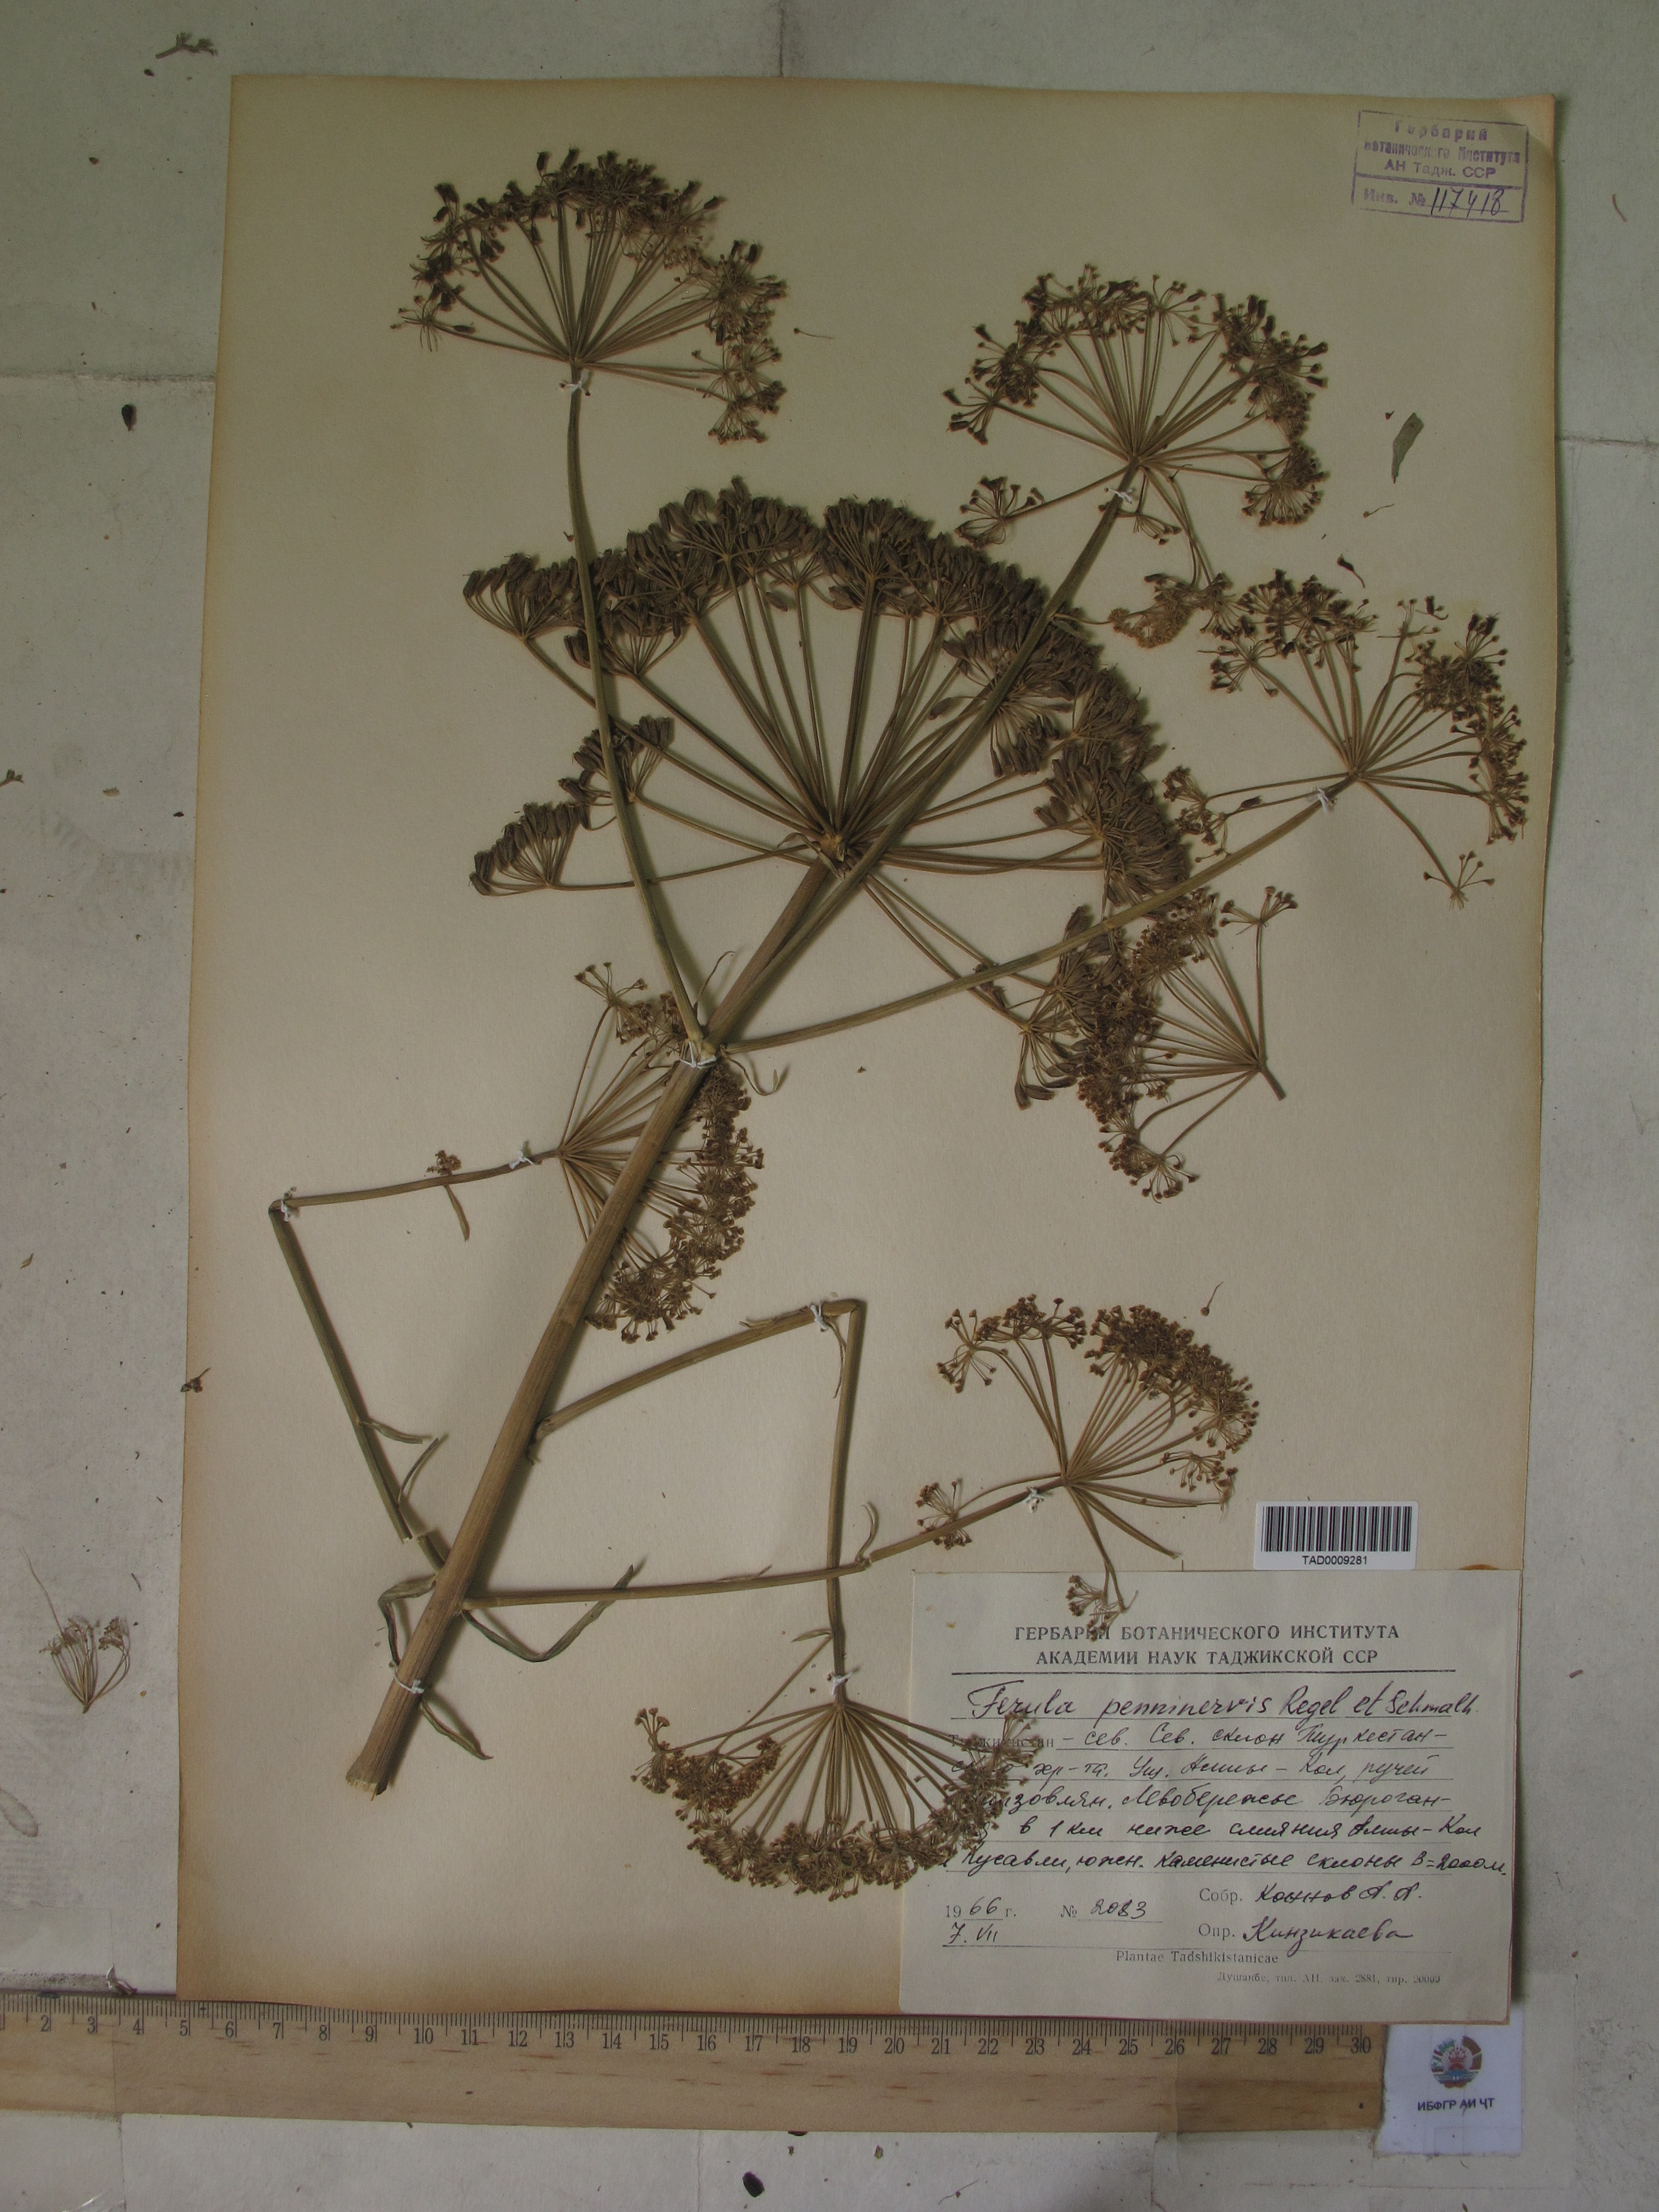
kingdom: Plantae
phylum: Tracheophyta
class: Magnoliopsida
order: Apiales
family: Apiaceae
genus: Ferula
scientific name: Ferula
